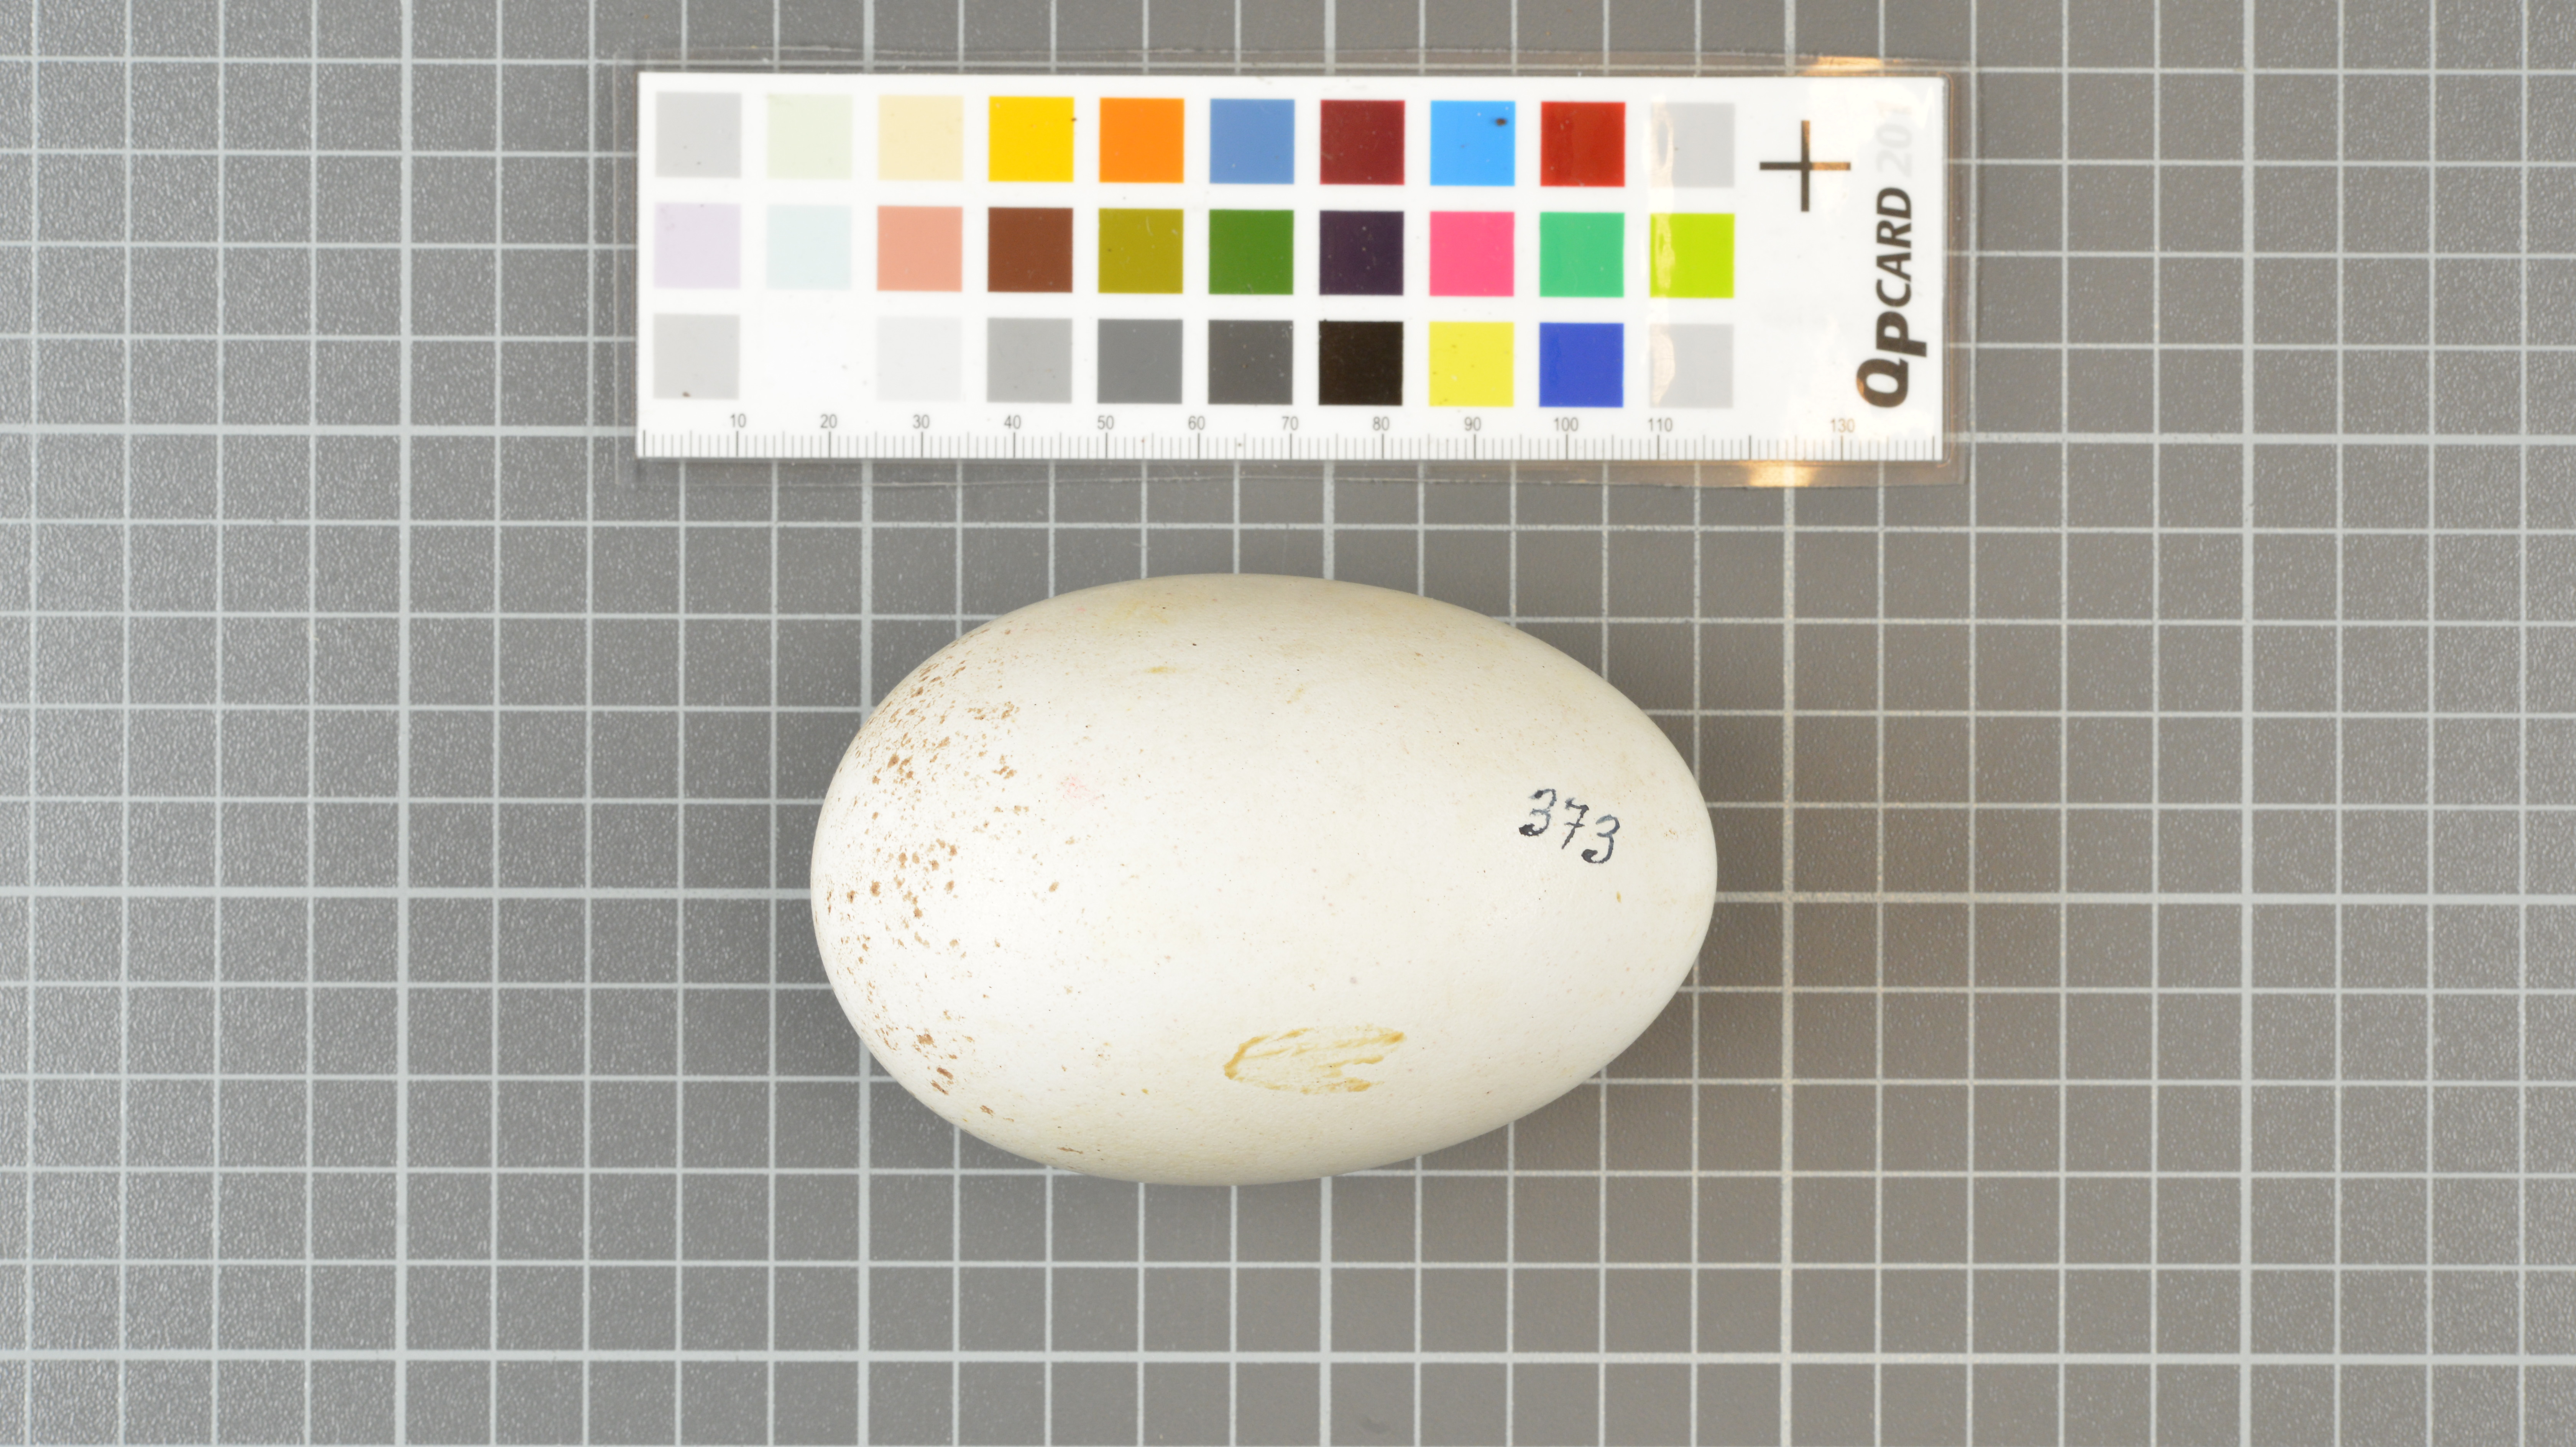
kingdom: Animalia
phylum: Chordata
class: Aves
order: Procellariiformes
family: Diomedeidae
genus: Thalassarche
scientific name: Thalassarche chlororhynchos
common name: Atlantic yellow-nosed albatross
